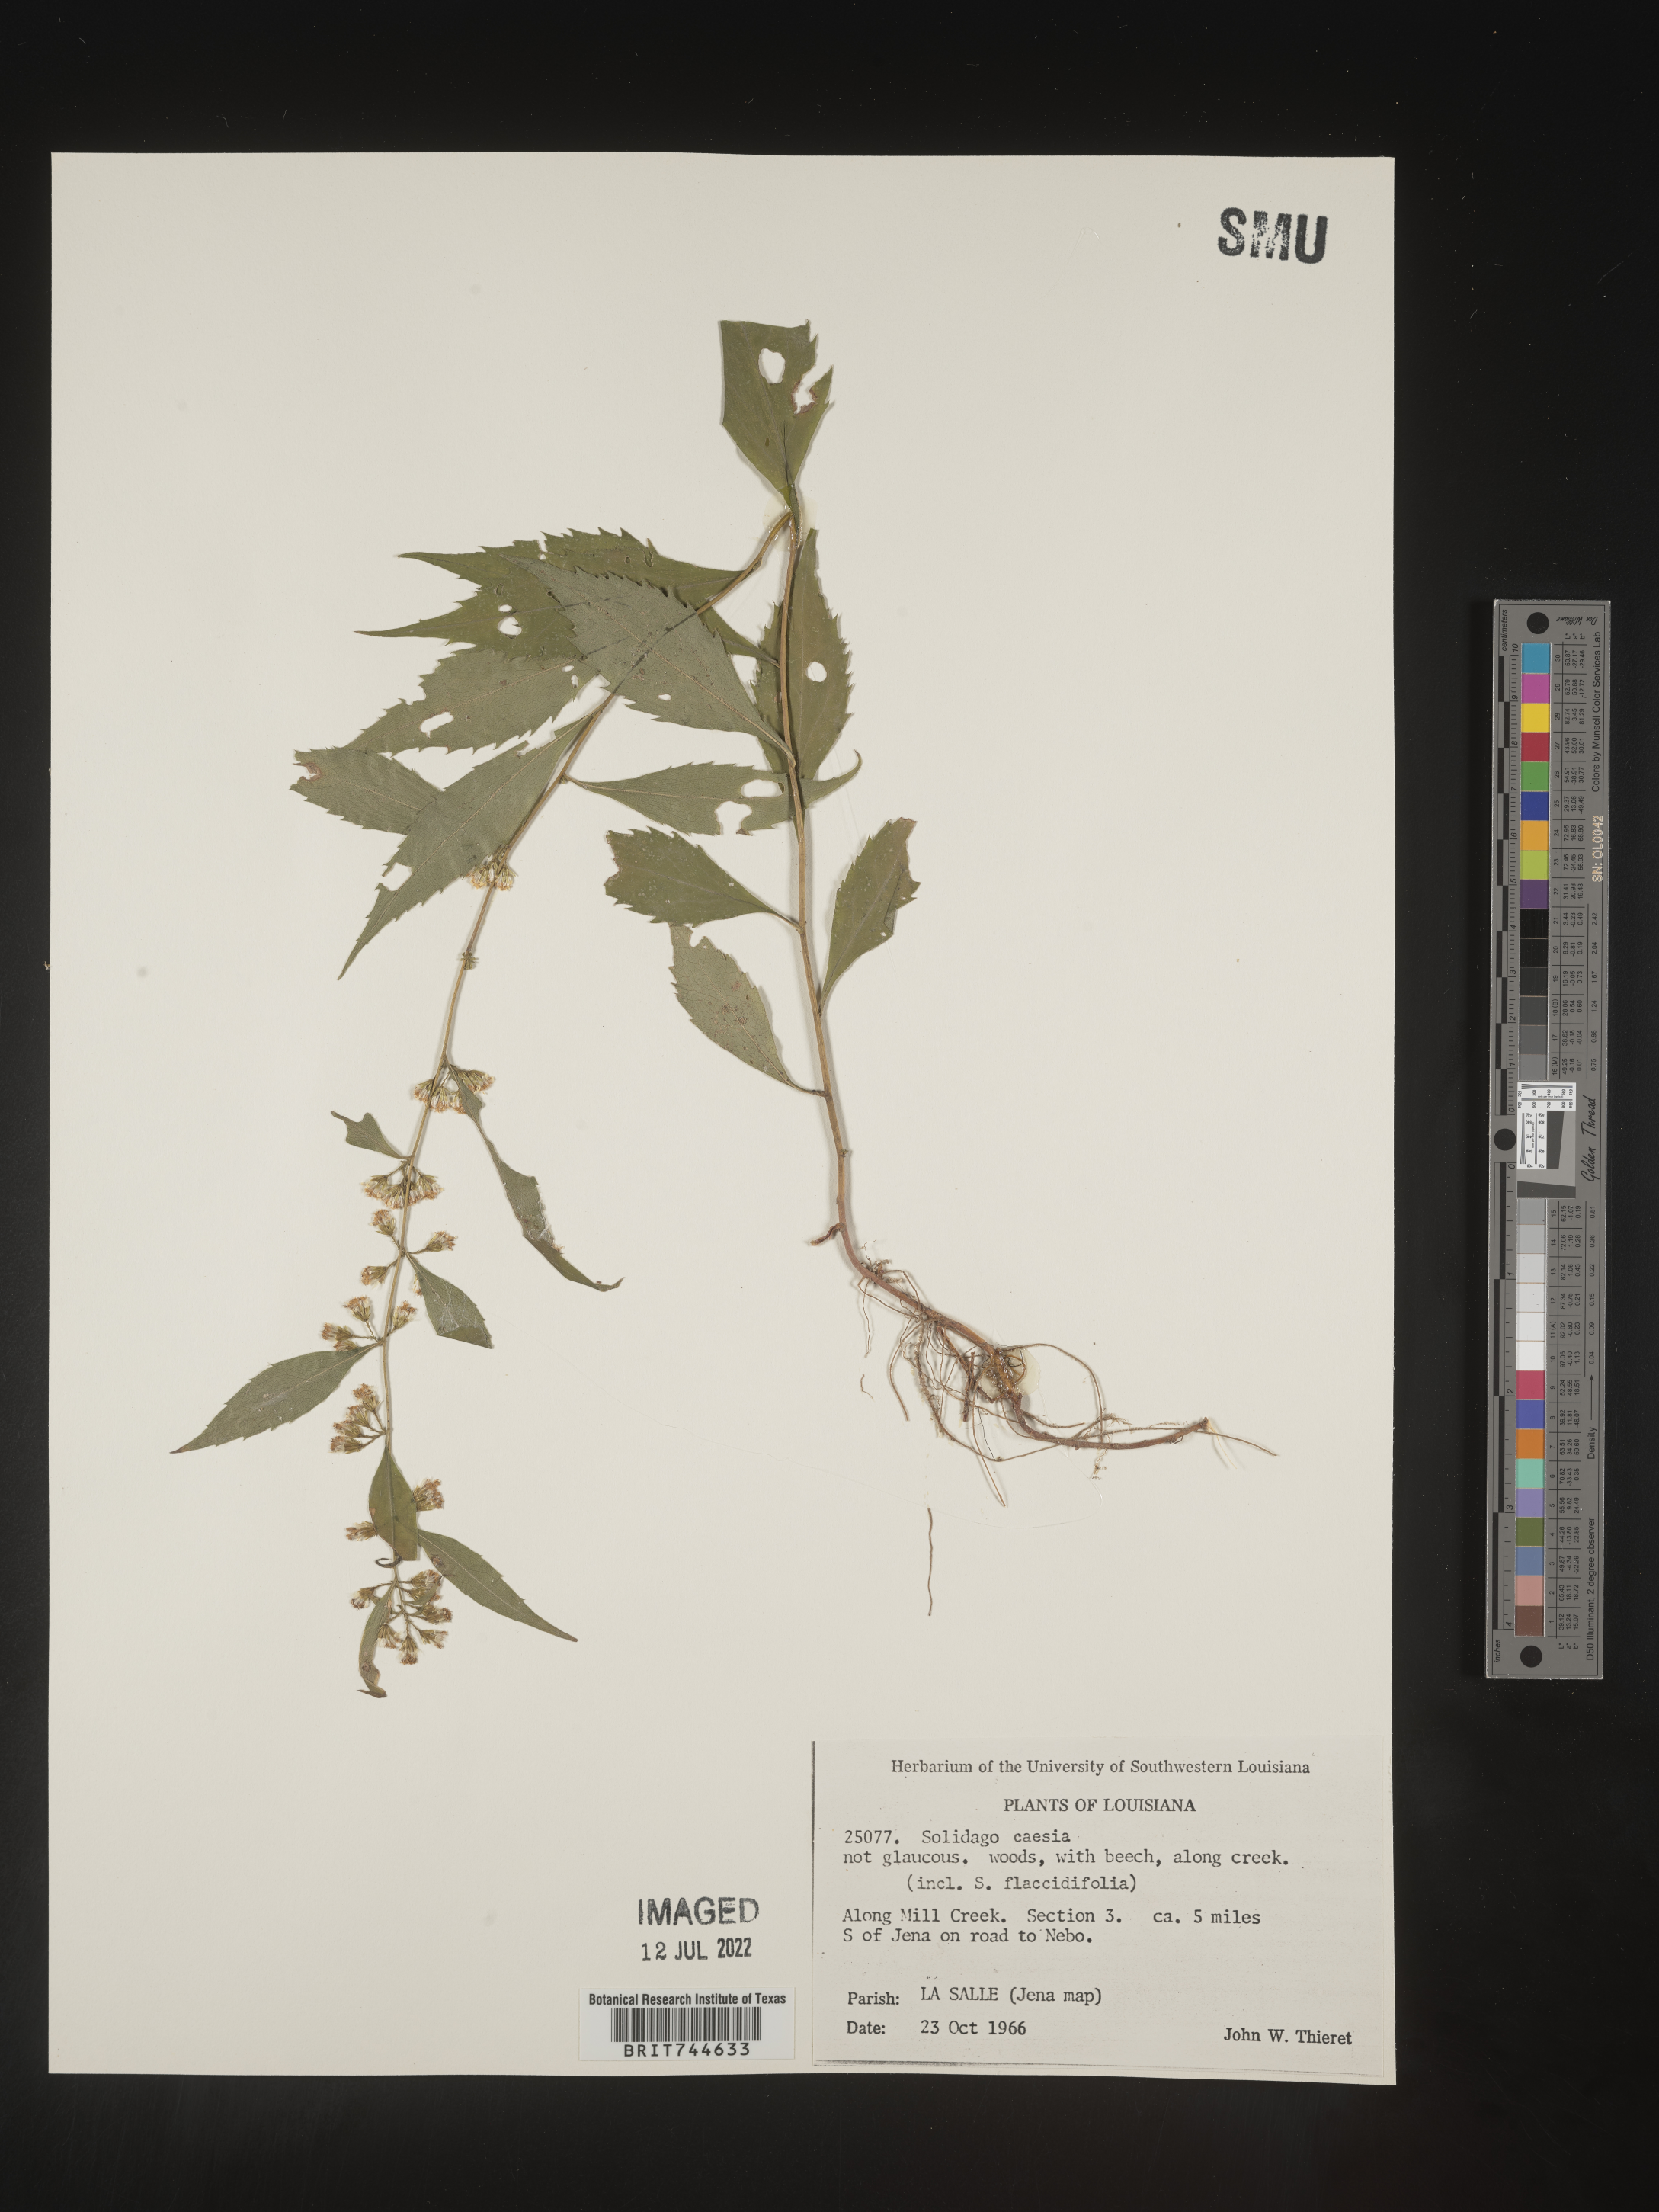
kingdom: Plantae
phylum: Tracheophyta
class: Magnoliopsida
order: Asterales
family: Asteraceae
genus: Solidago
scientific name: Solidago caesia
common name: Woodland goldenrod
